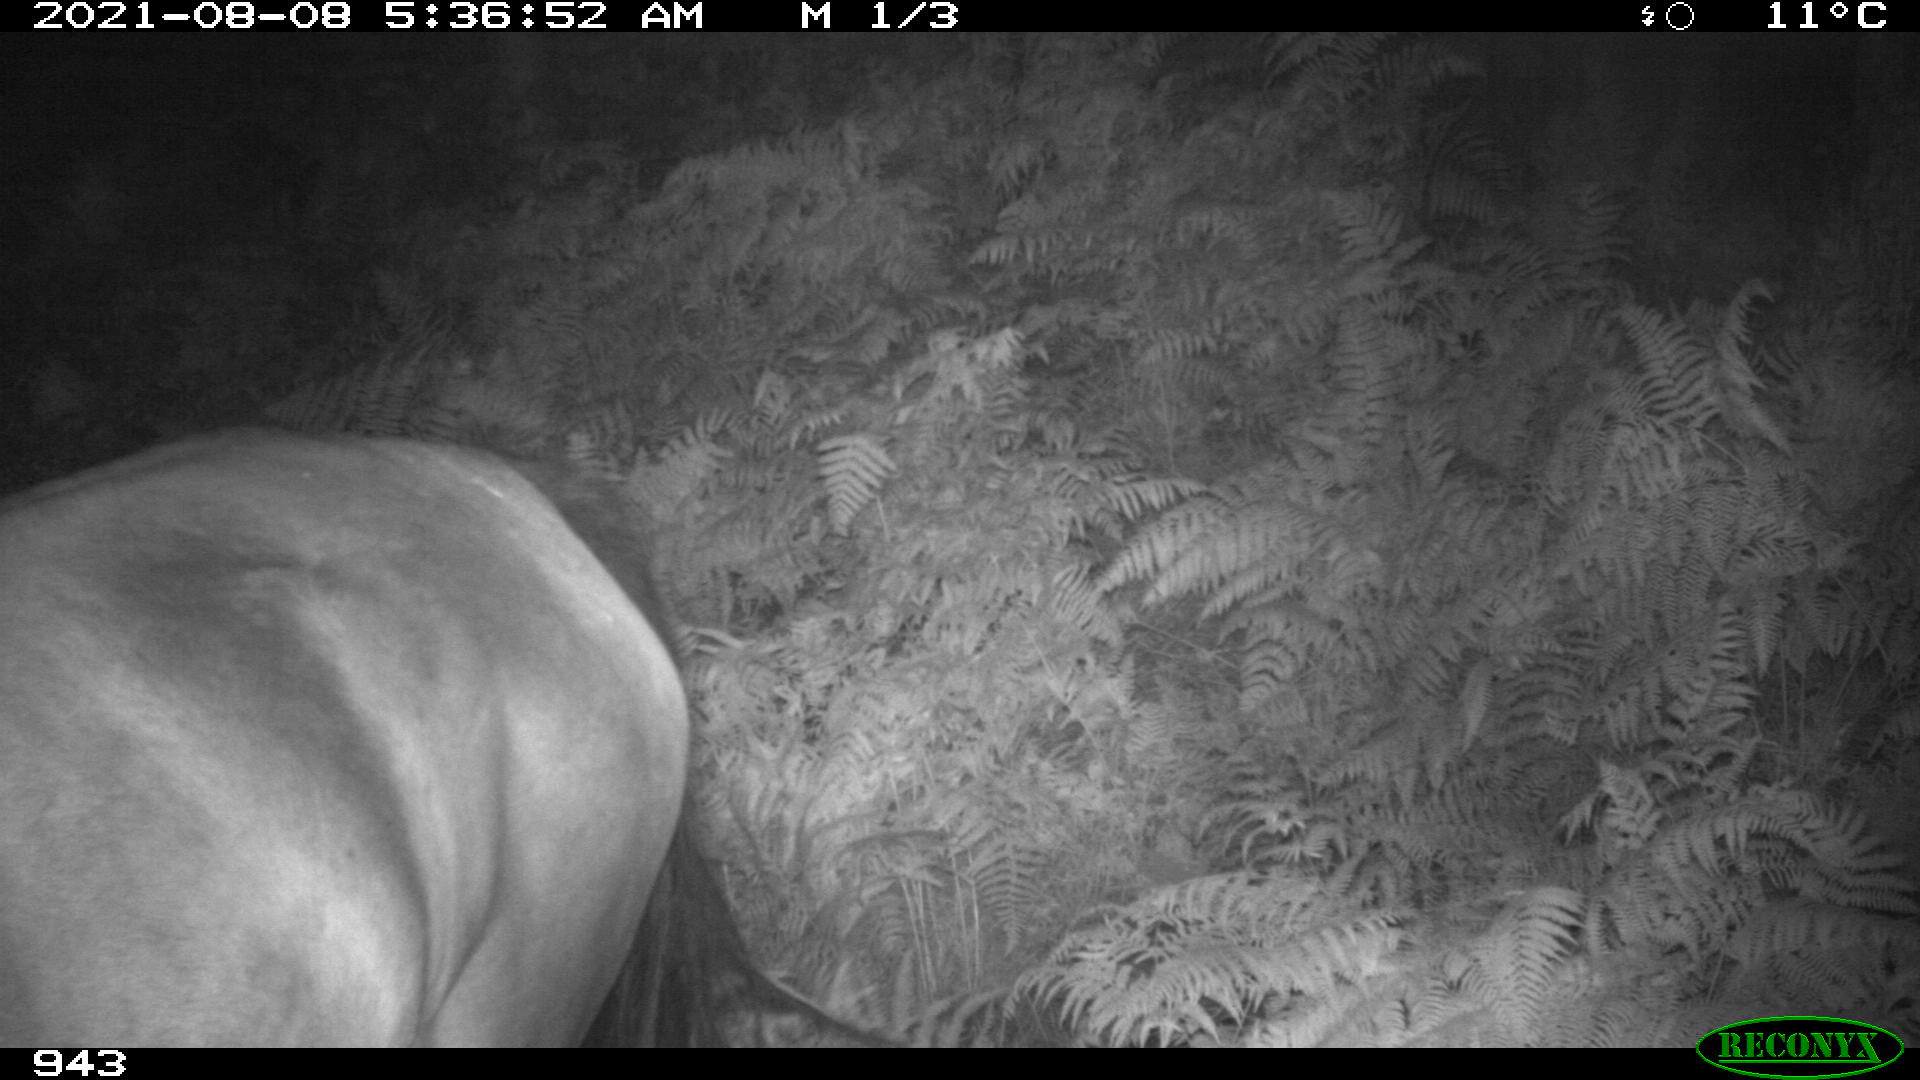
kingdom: Animalia
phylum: Chordata
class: Mammalia
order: Perissodactyla
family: Equidae
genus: Equus
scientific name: Equus caballus
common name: Horse
